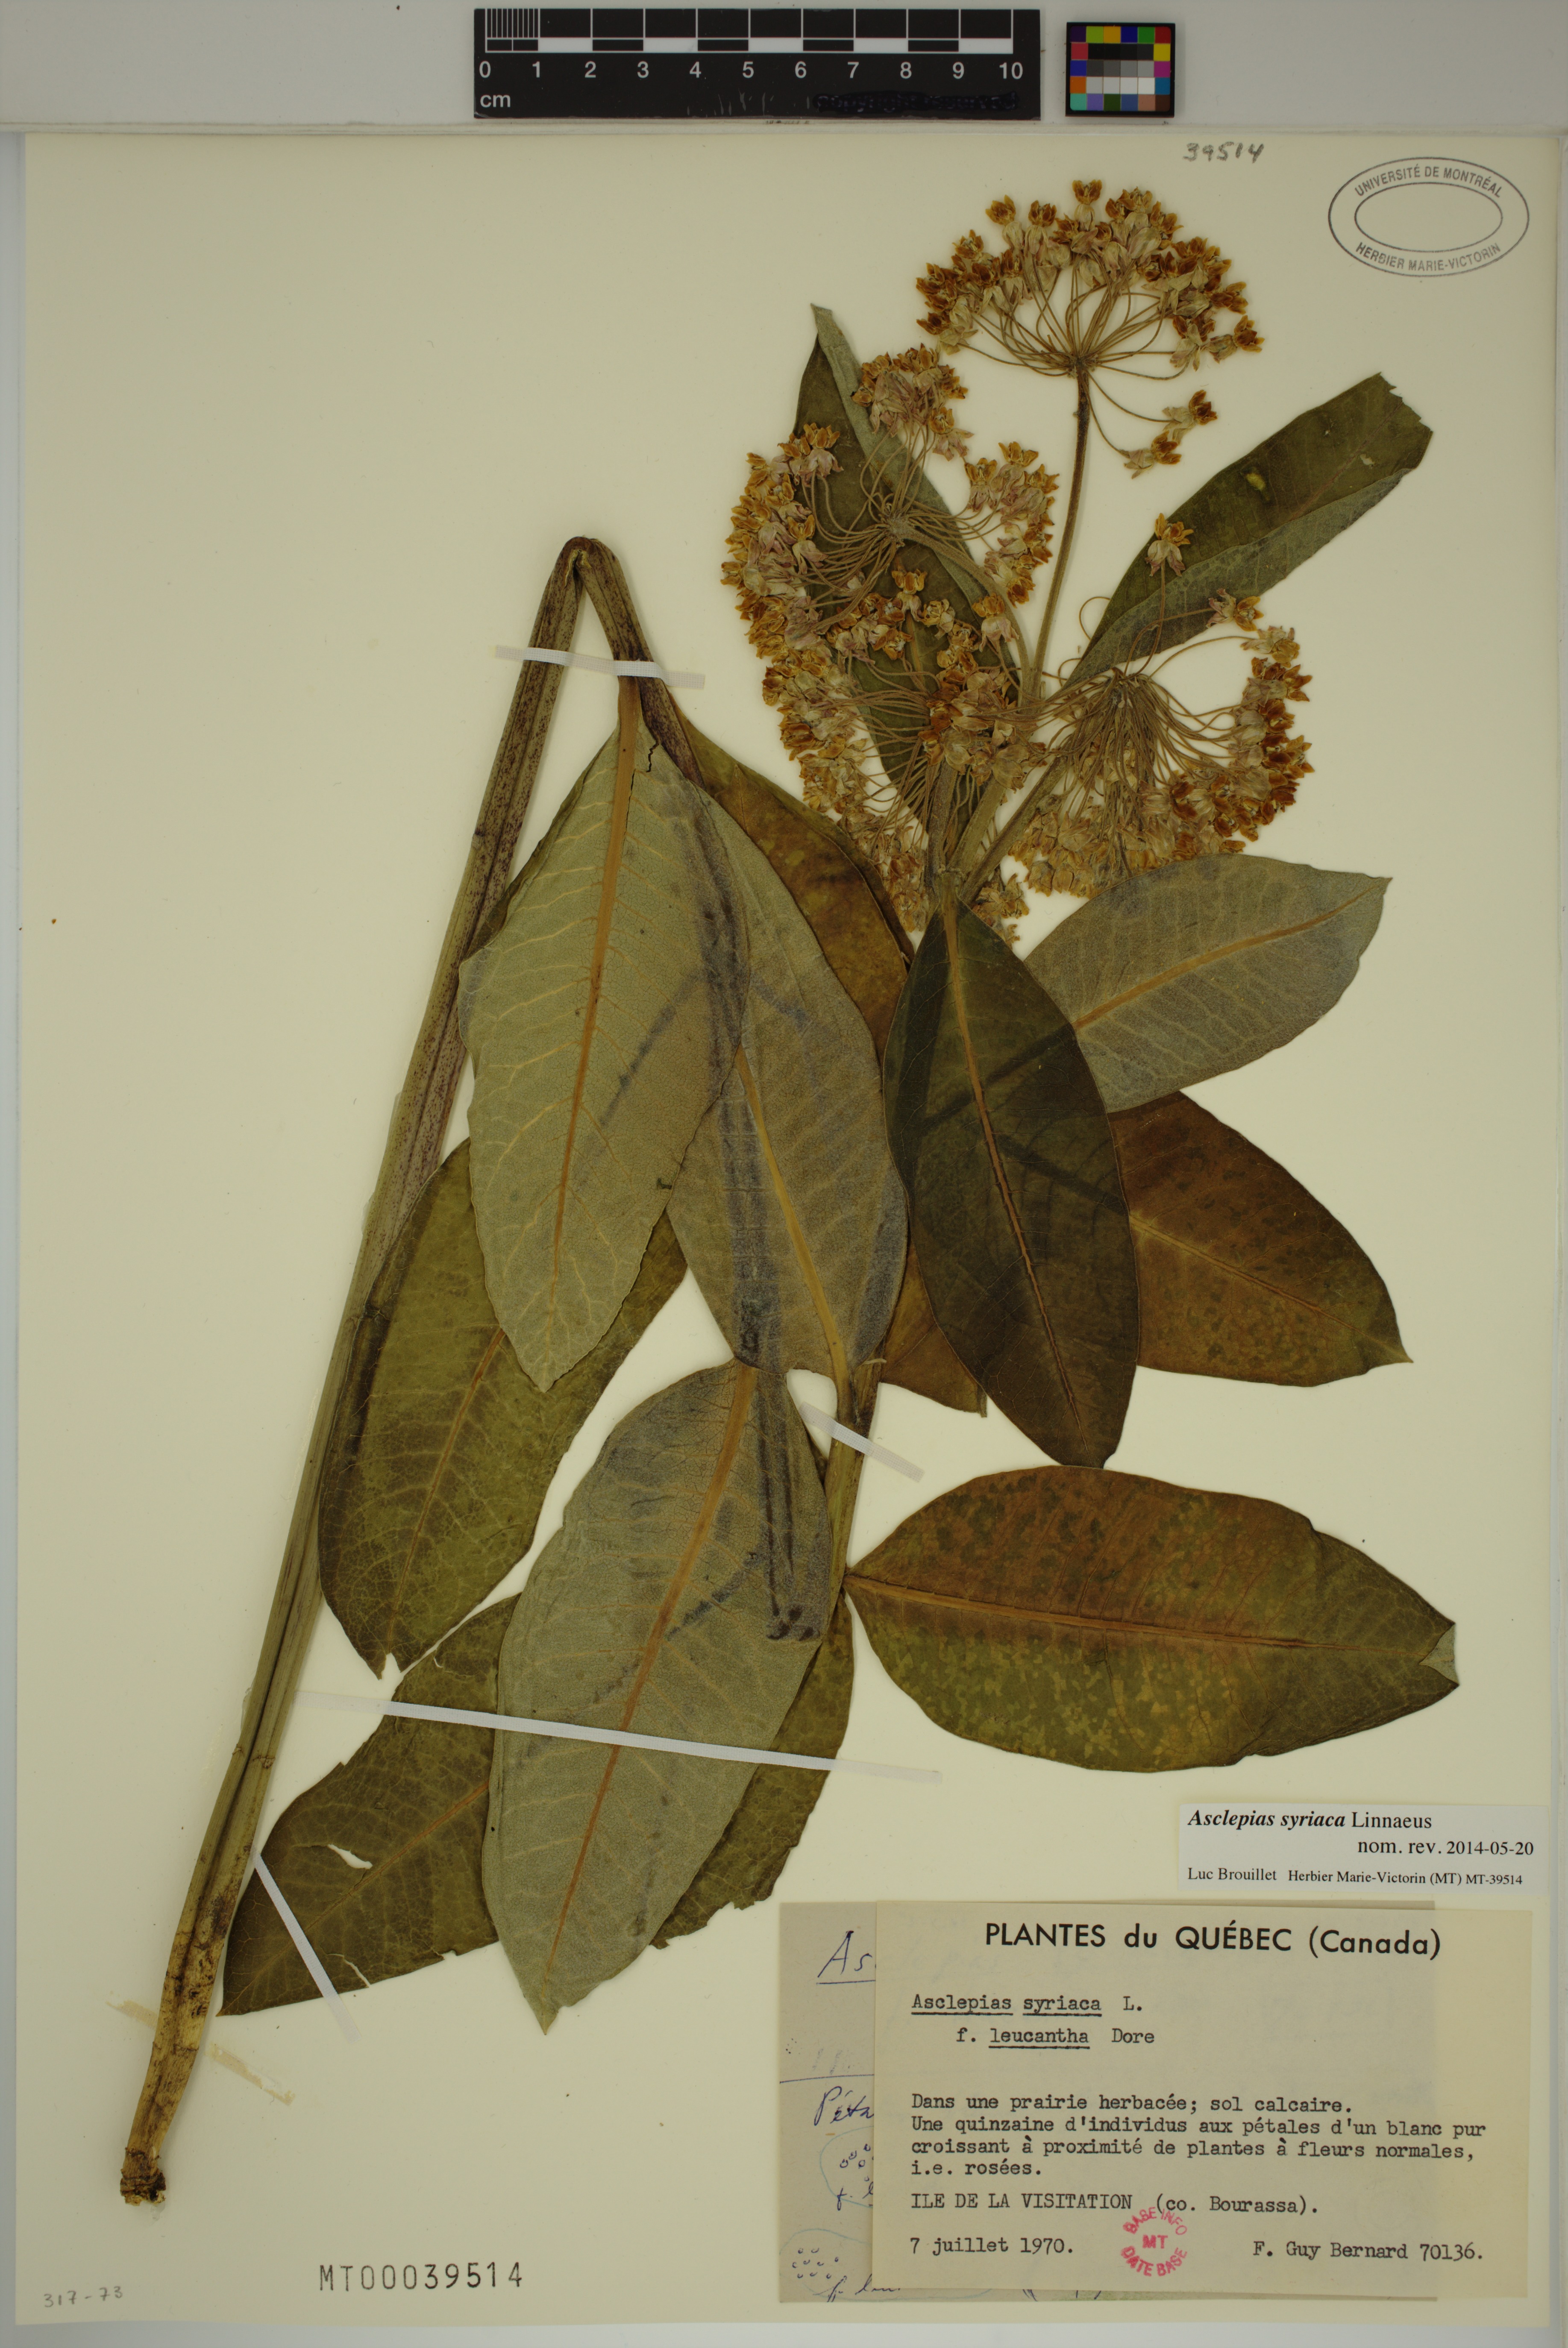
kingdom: Plantae
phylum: Tracheophyta
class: Magnoliopsida
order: Gentianales
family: Apocynaceae
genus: Asclepias
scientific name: Asclepias syriaca
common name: Common milkweed
